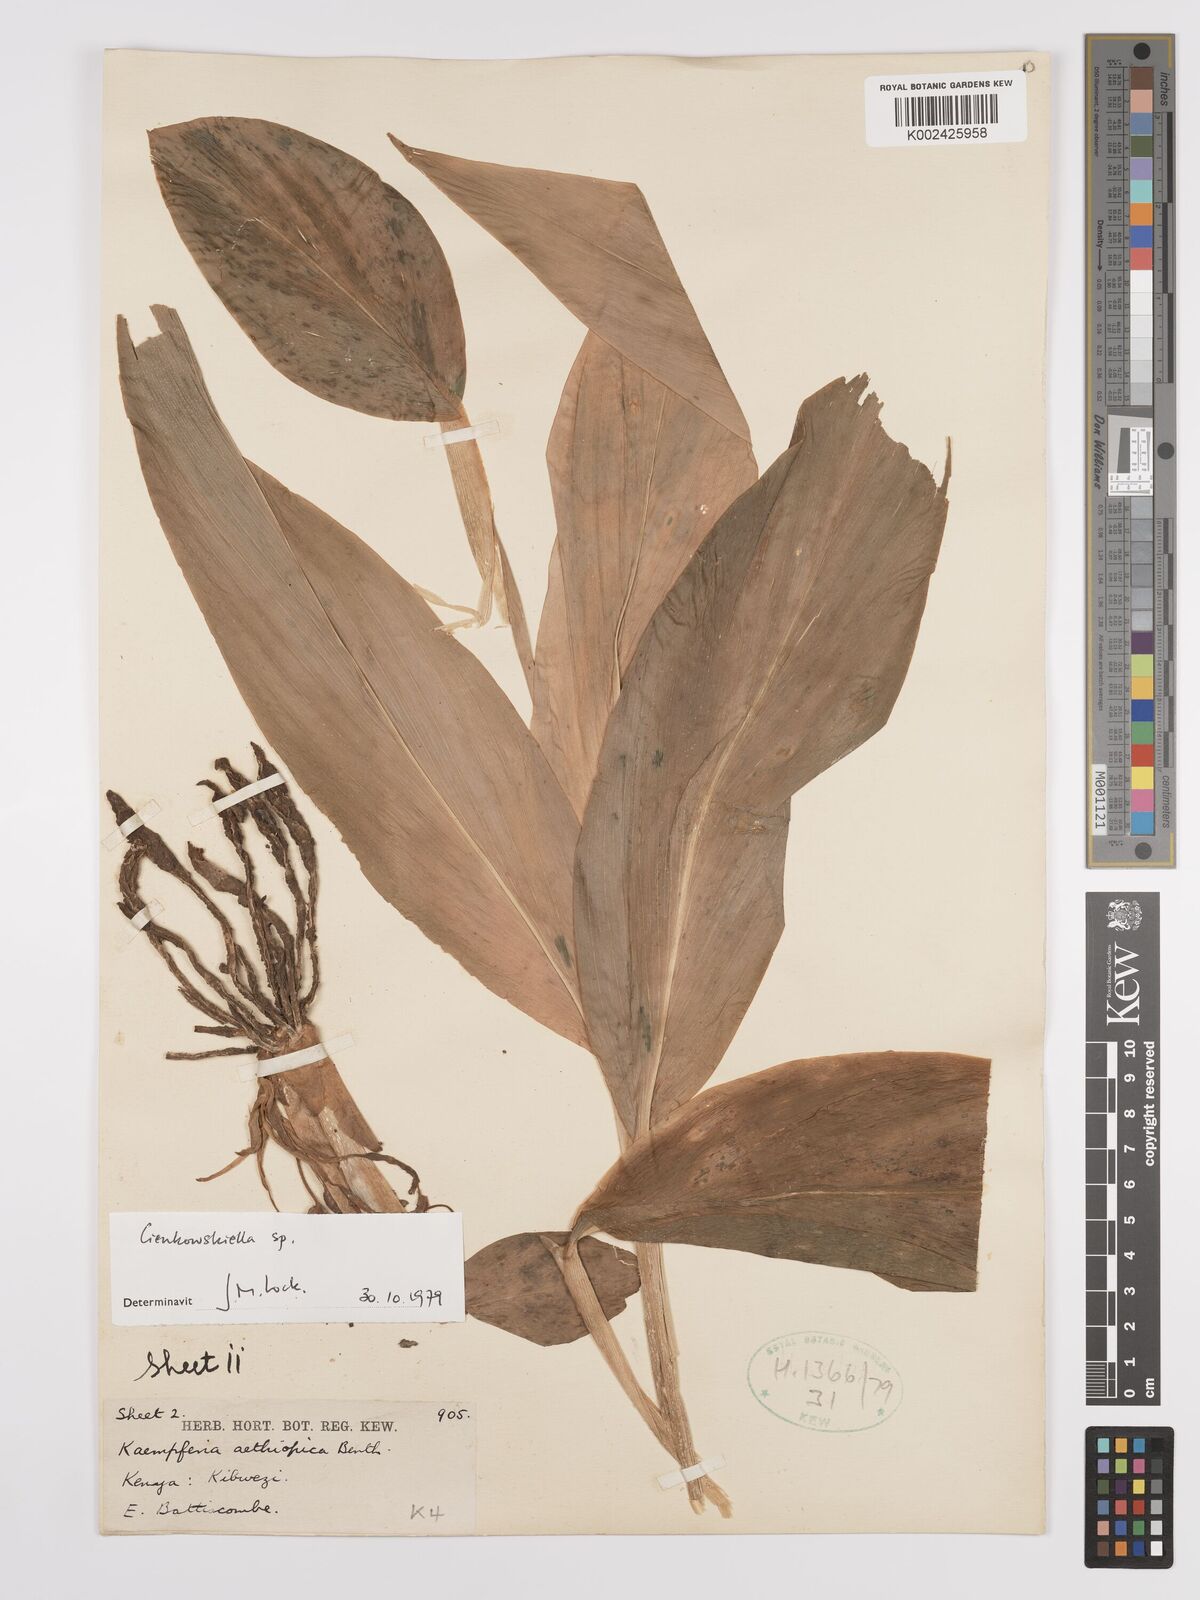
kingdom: Plantae
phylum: Tracheophyta
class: Liliopsida
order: Zingiberales
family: Zingiberaceae
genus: Siphonochilus
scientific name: Siphonochilus
